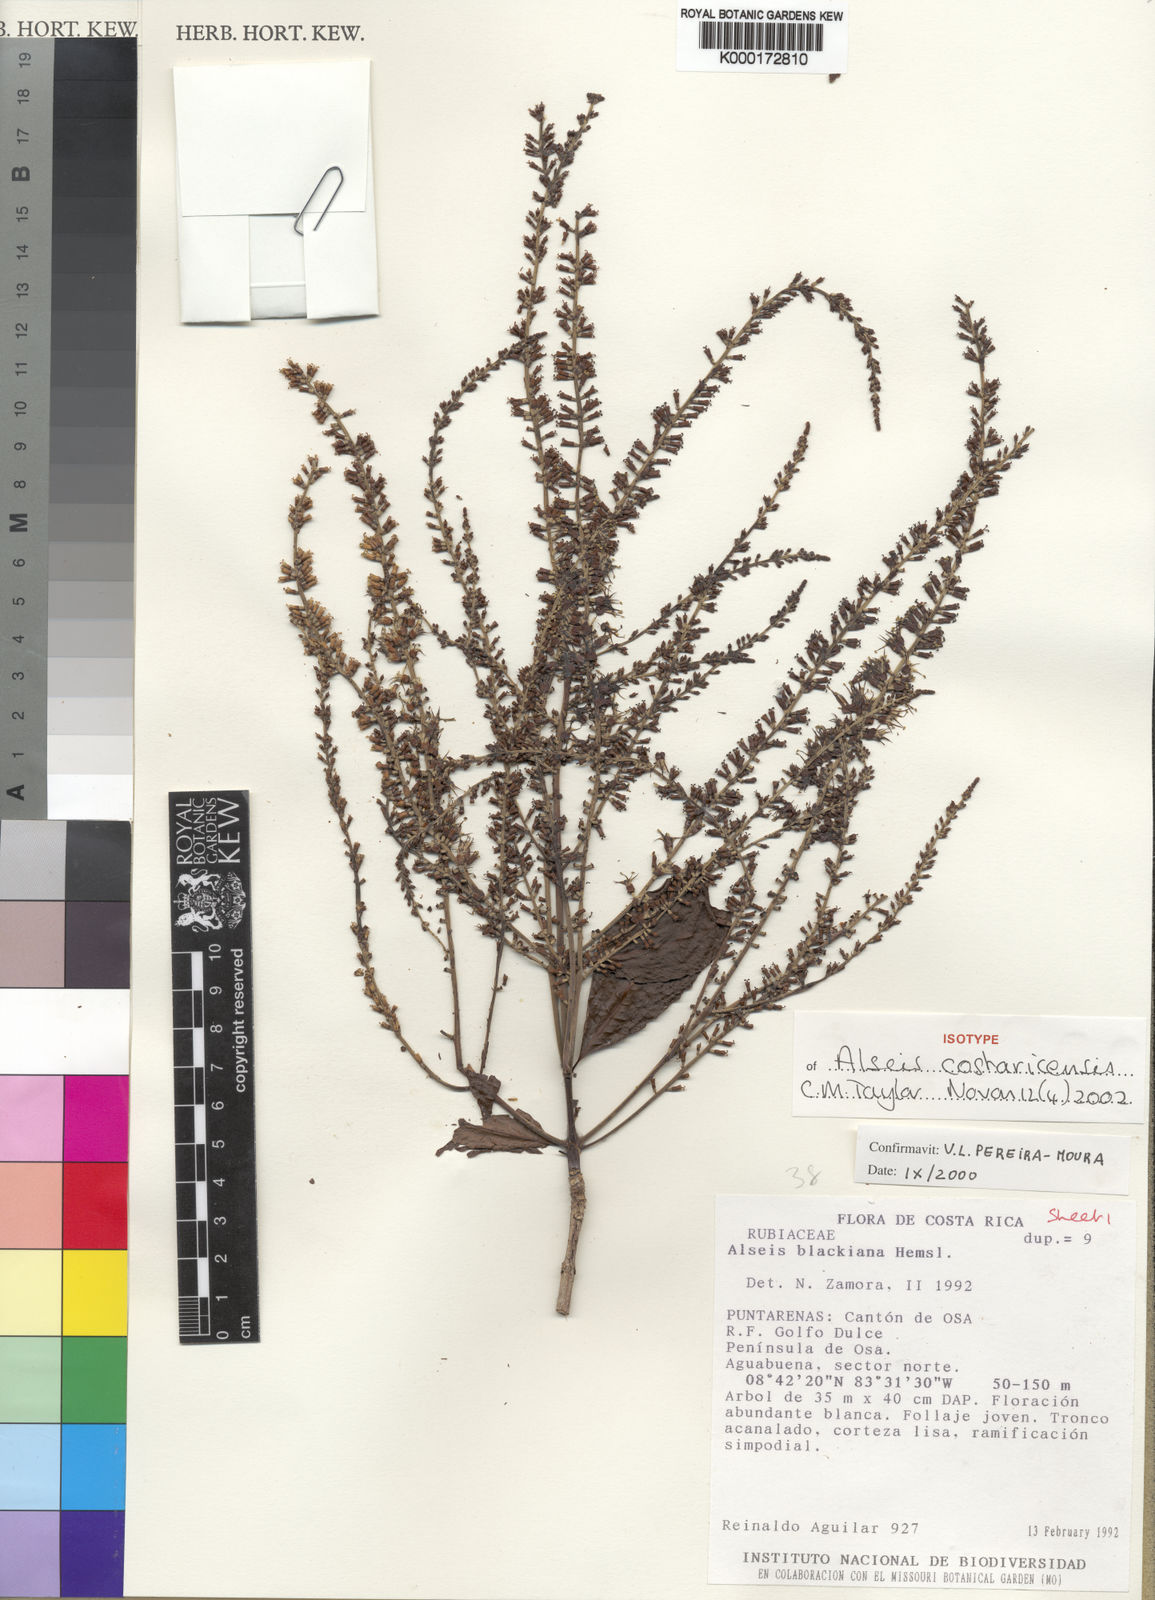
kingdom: Plantae
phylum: Tracheophyta
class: Magnoliopsida
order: Gentianales
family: Rubiaceae
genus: Alseis
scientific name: Alseis blackiana
